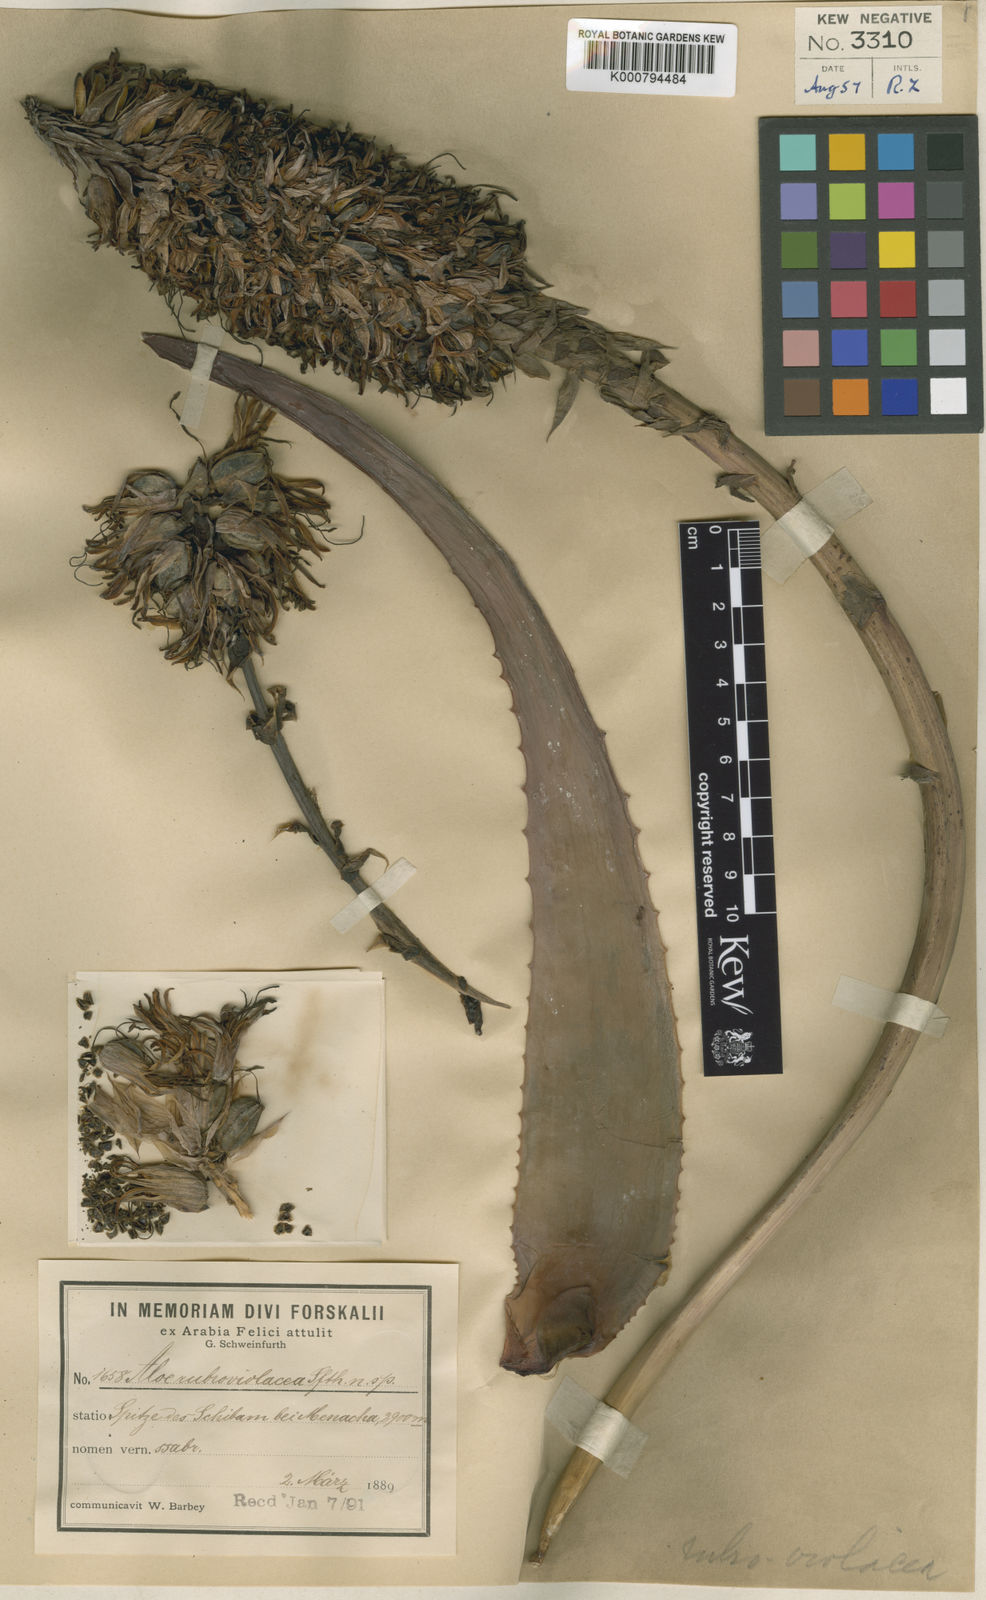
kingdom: Plantae
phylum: Tracheophyta
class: Liliopsida
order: Asparagales
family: Asphodelaceae
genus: Aloe
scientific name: Aloe rubroviolacea
